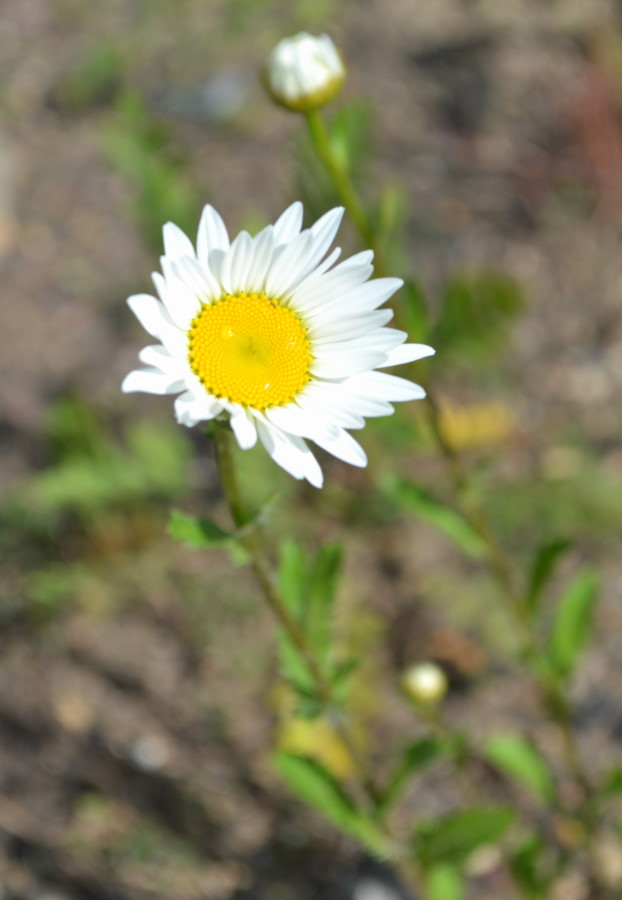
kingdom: Plantae
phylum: Tracheophyta
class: Magnoliopsida
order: Asterales
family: Asteraceae
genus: Leucanthemum
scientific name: Leucanthemum vulgare
